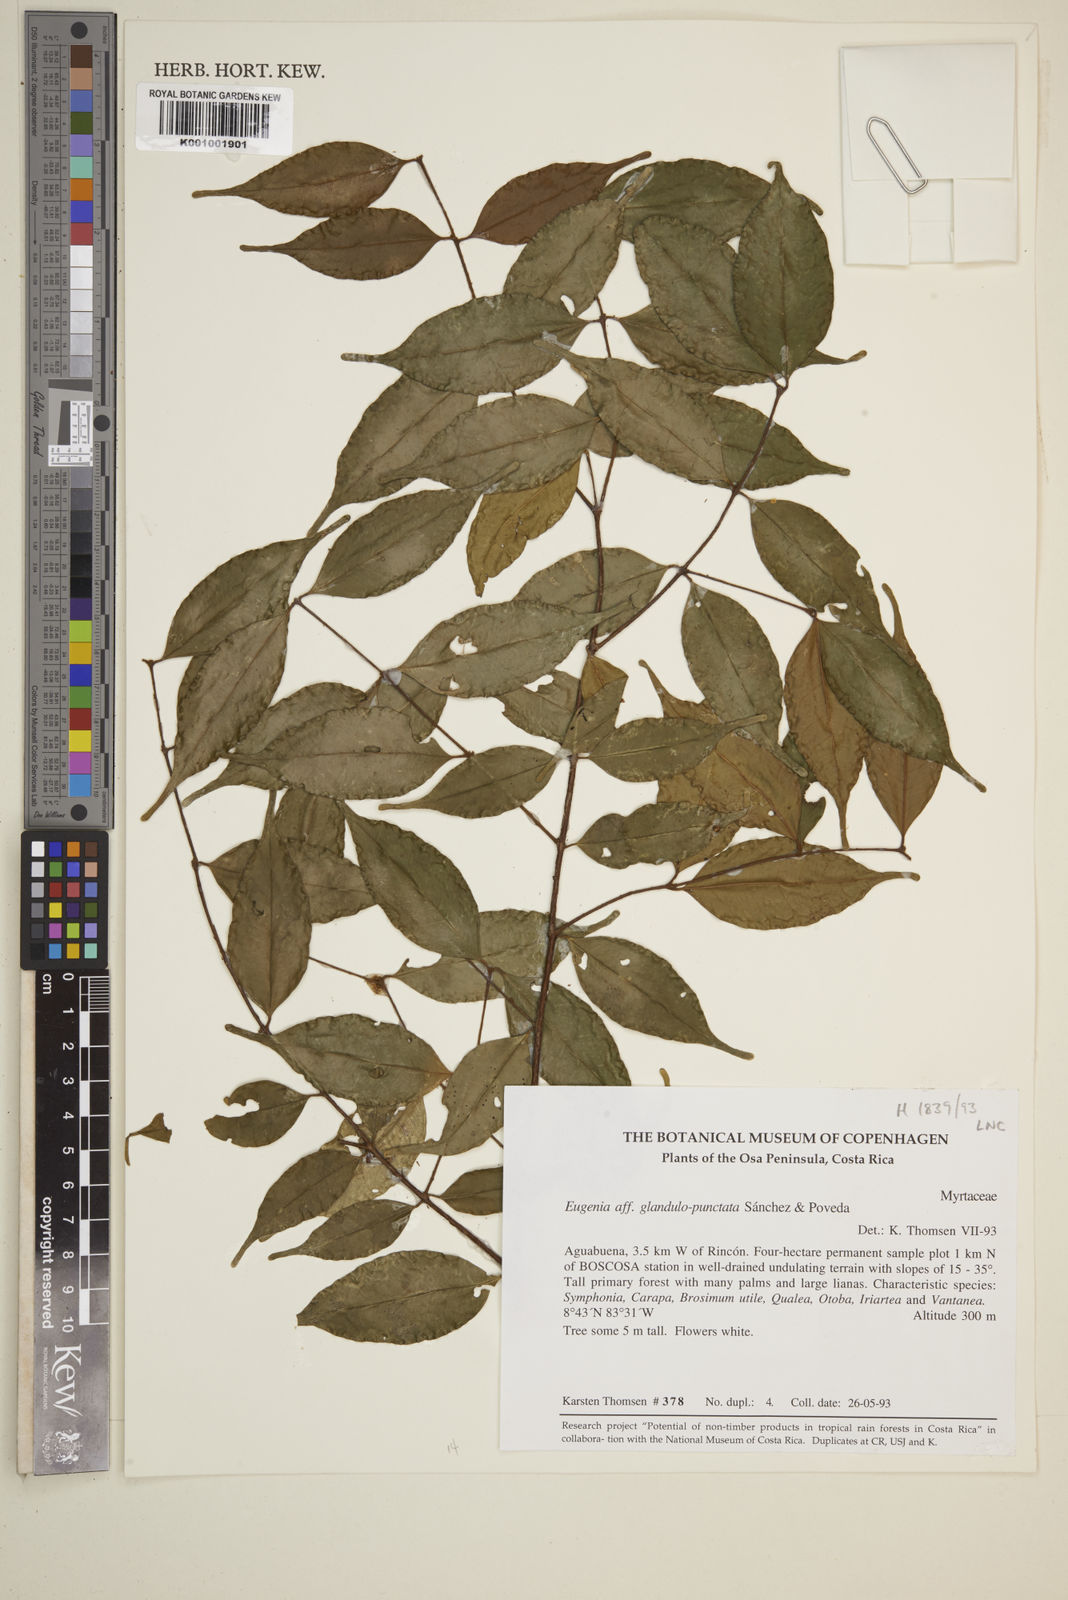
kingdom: Plantae
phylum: Tracheophyta
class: Magnoliopsida
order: Myrtales
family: Myrtaceae
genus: Eugenia
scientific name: Eugenia
